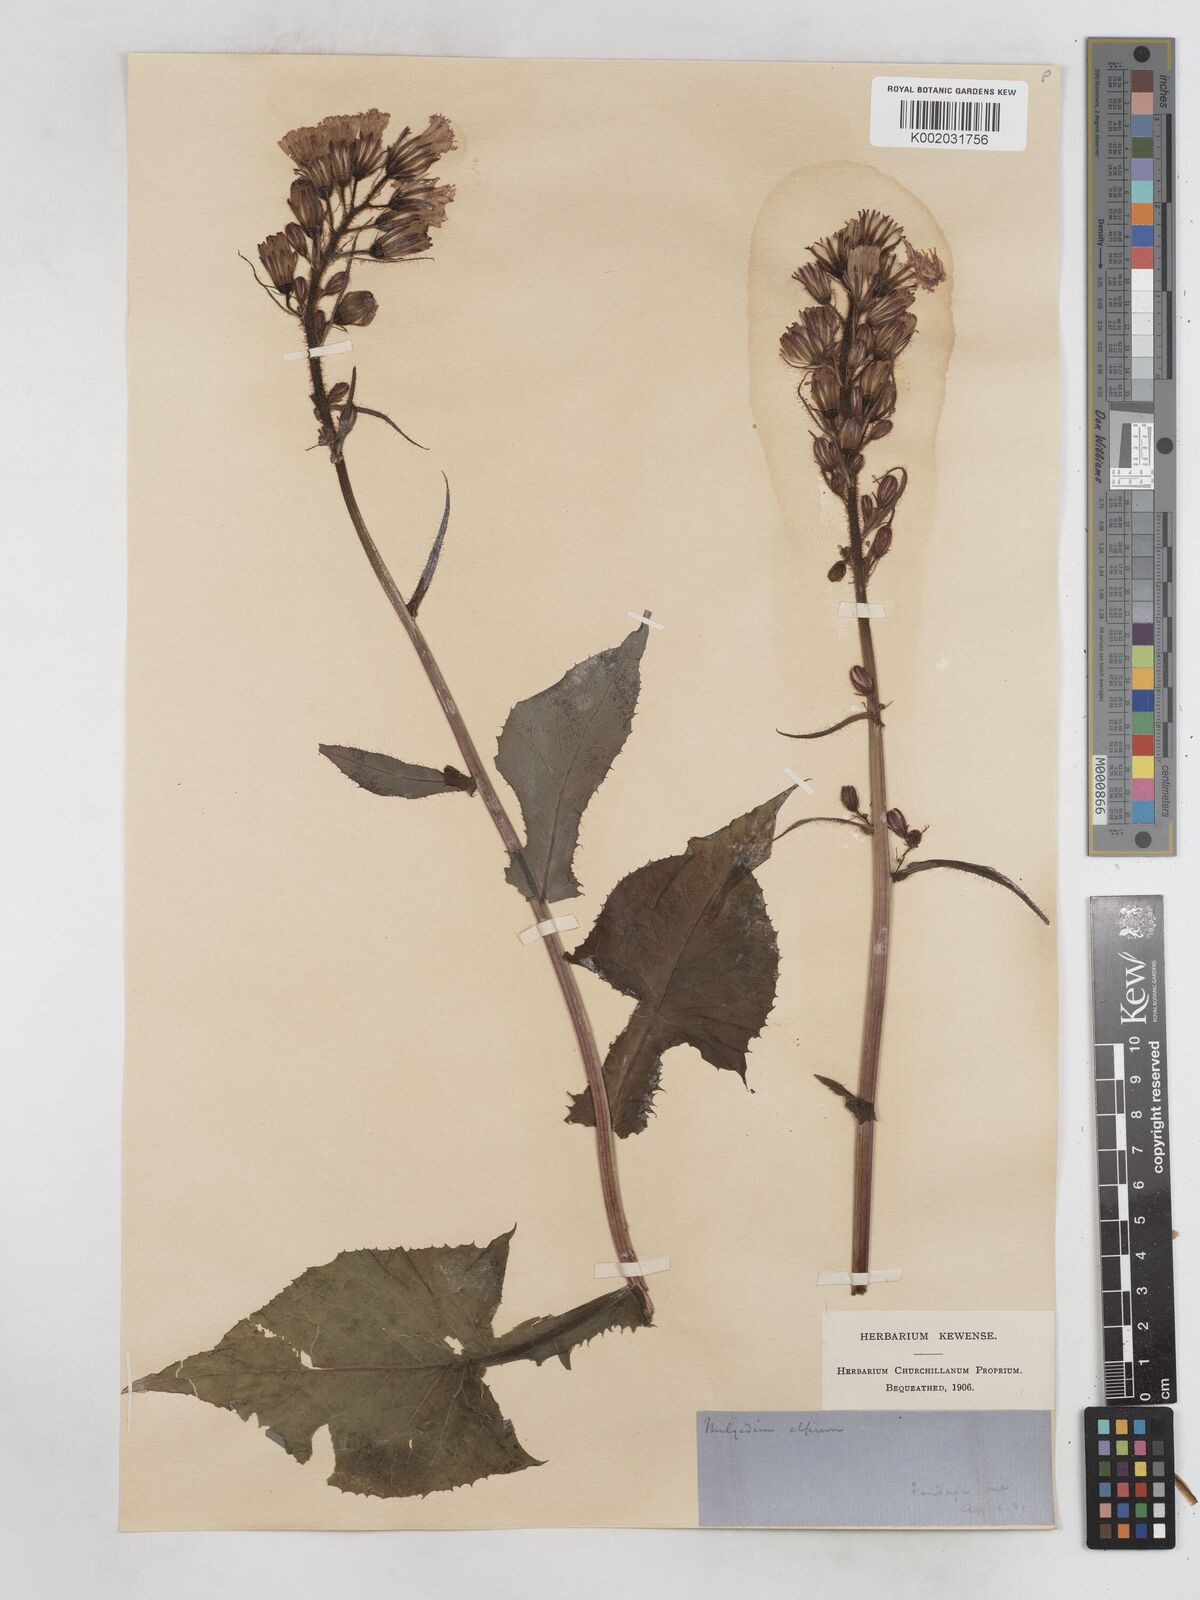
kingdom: Plantae
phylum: Tracheophyta
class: Magnoliopsida
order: Asterales
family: Asteraceae
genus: Cicerbita
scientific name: Cicerbita alpina
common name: Alpine blue-sow-thistle
